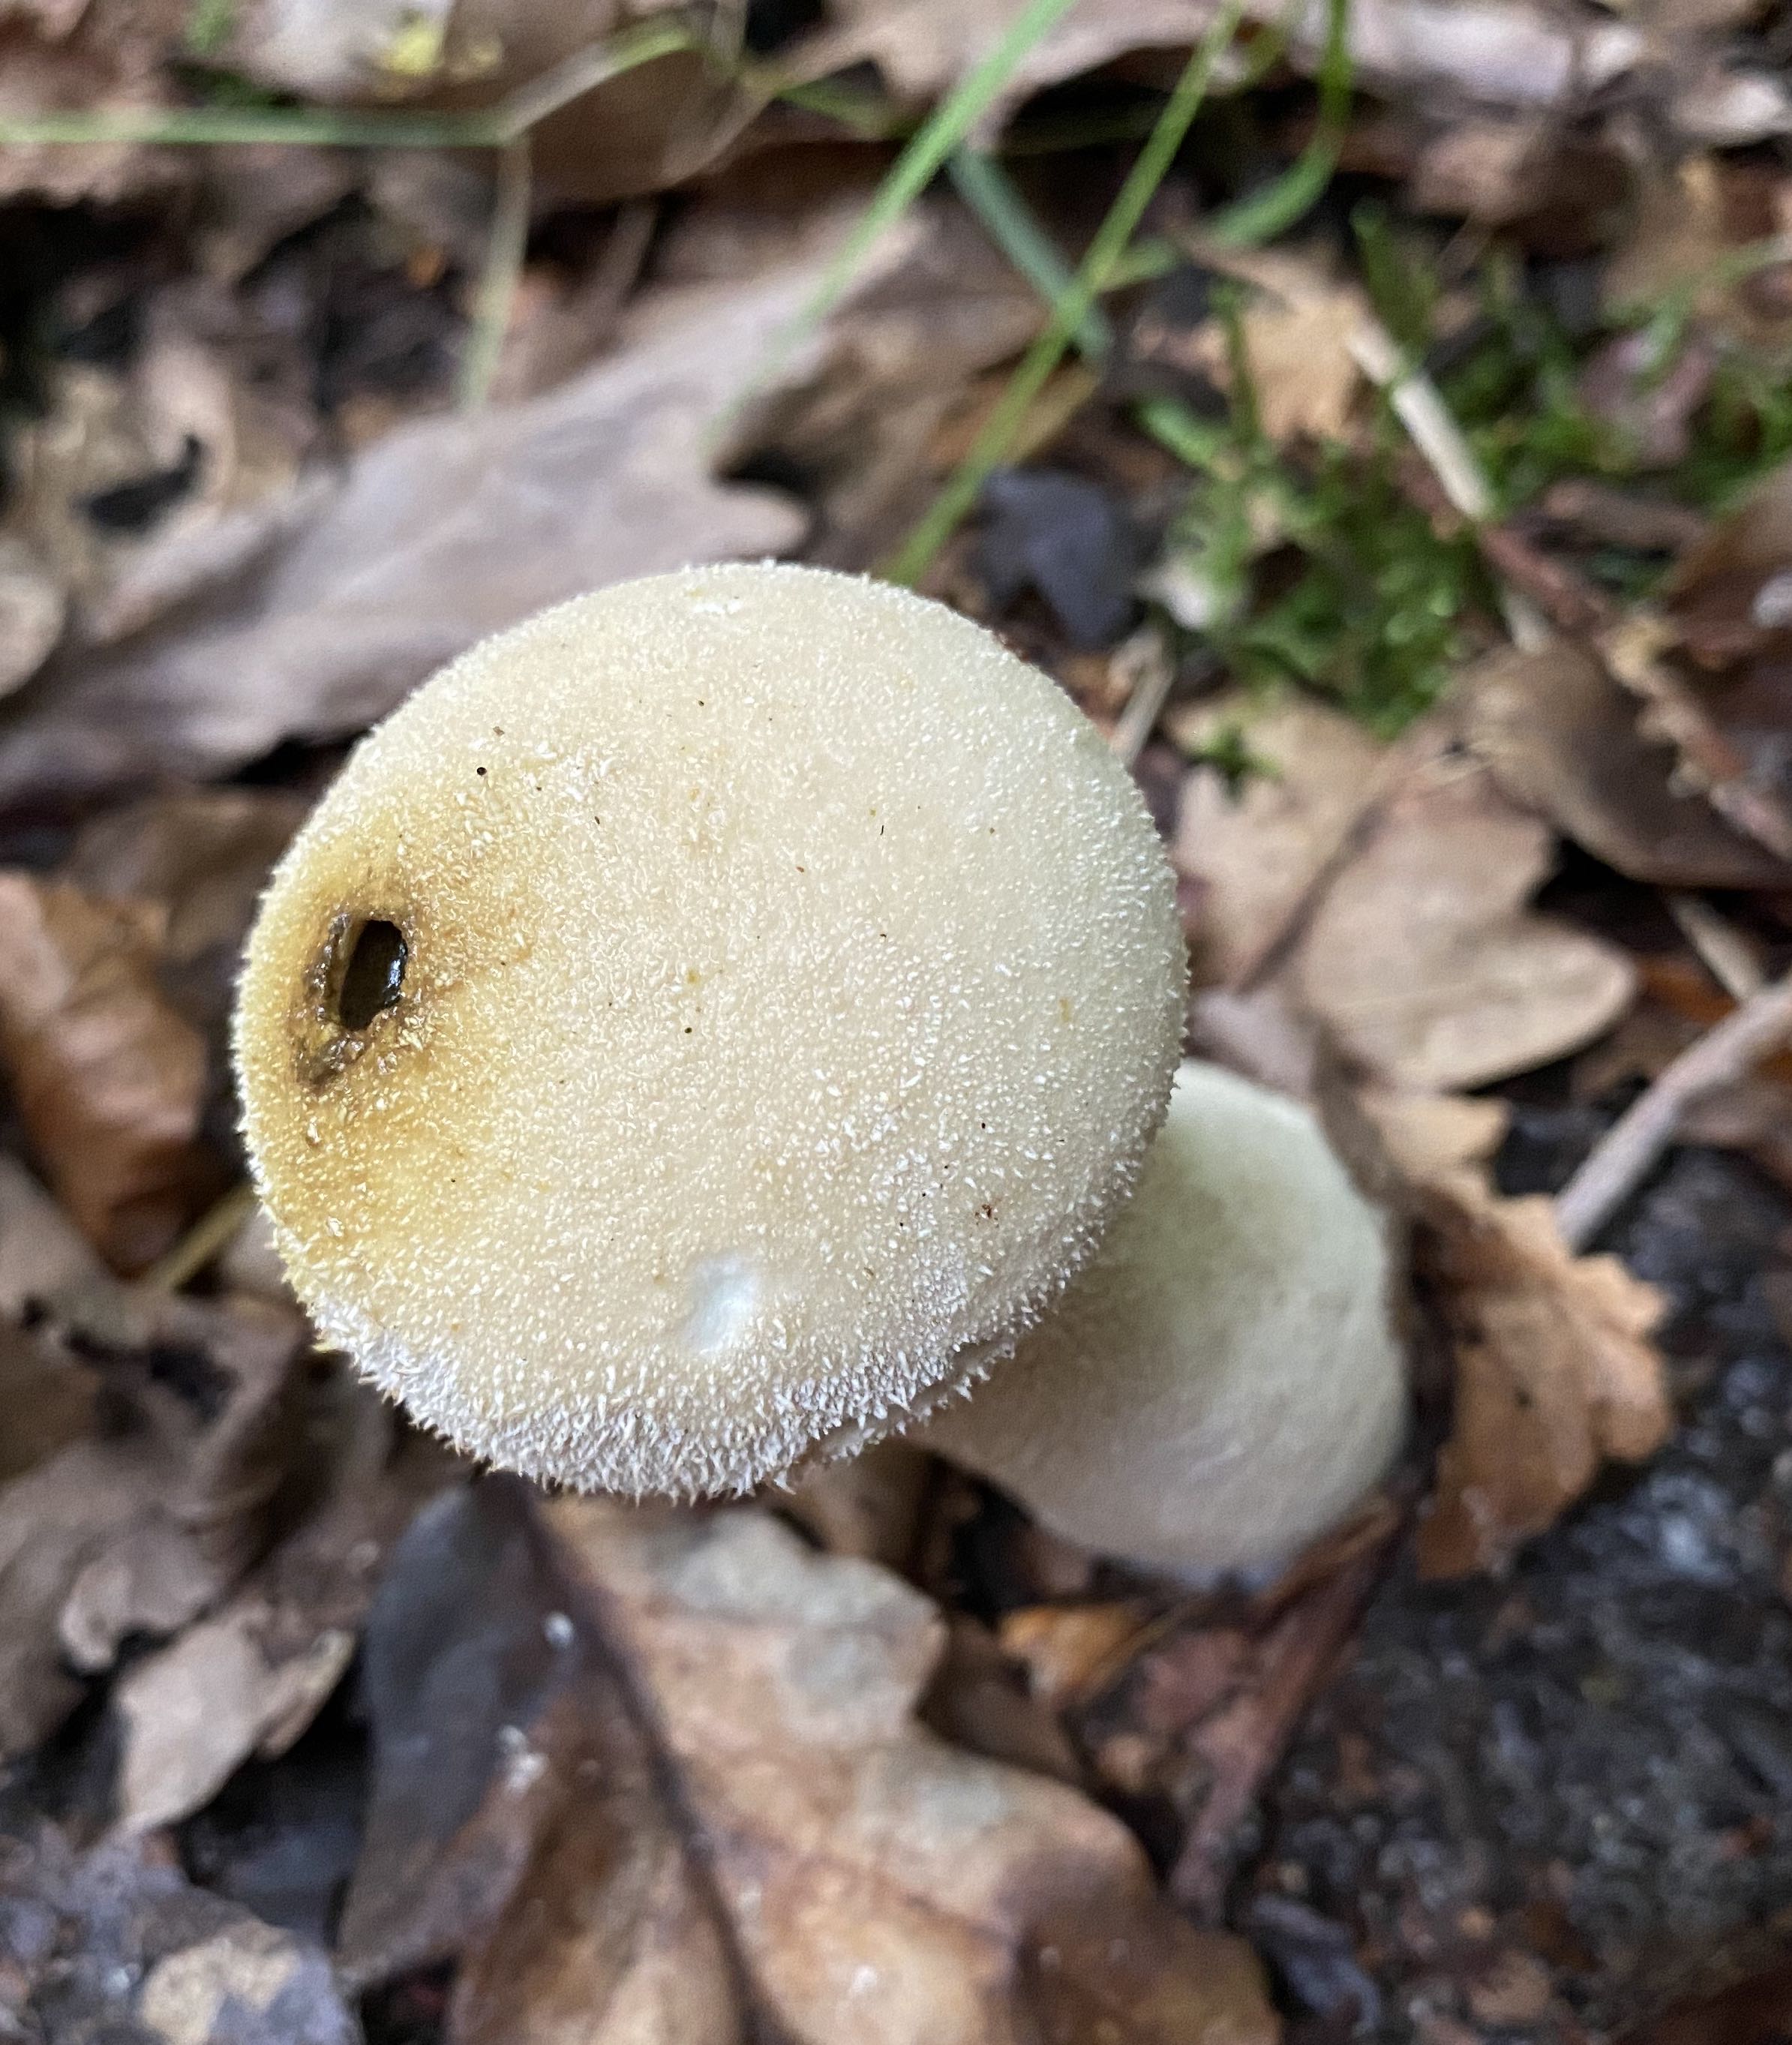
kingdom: Fungi
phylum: Basidiomycota
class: Agaricomycetes
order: Agaricales
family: Lycoperdaceae
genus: Lycoperdon
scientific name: Lycoperdon excipuliforme
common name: højstokket støvbold
